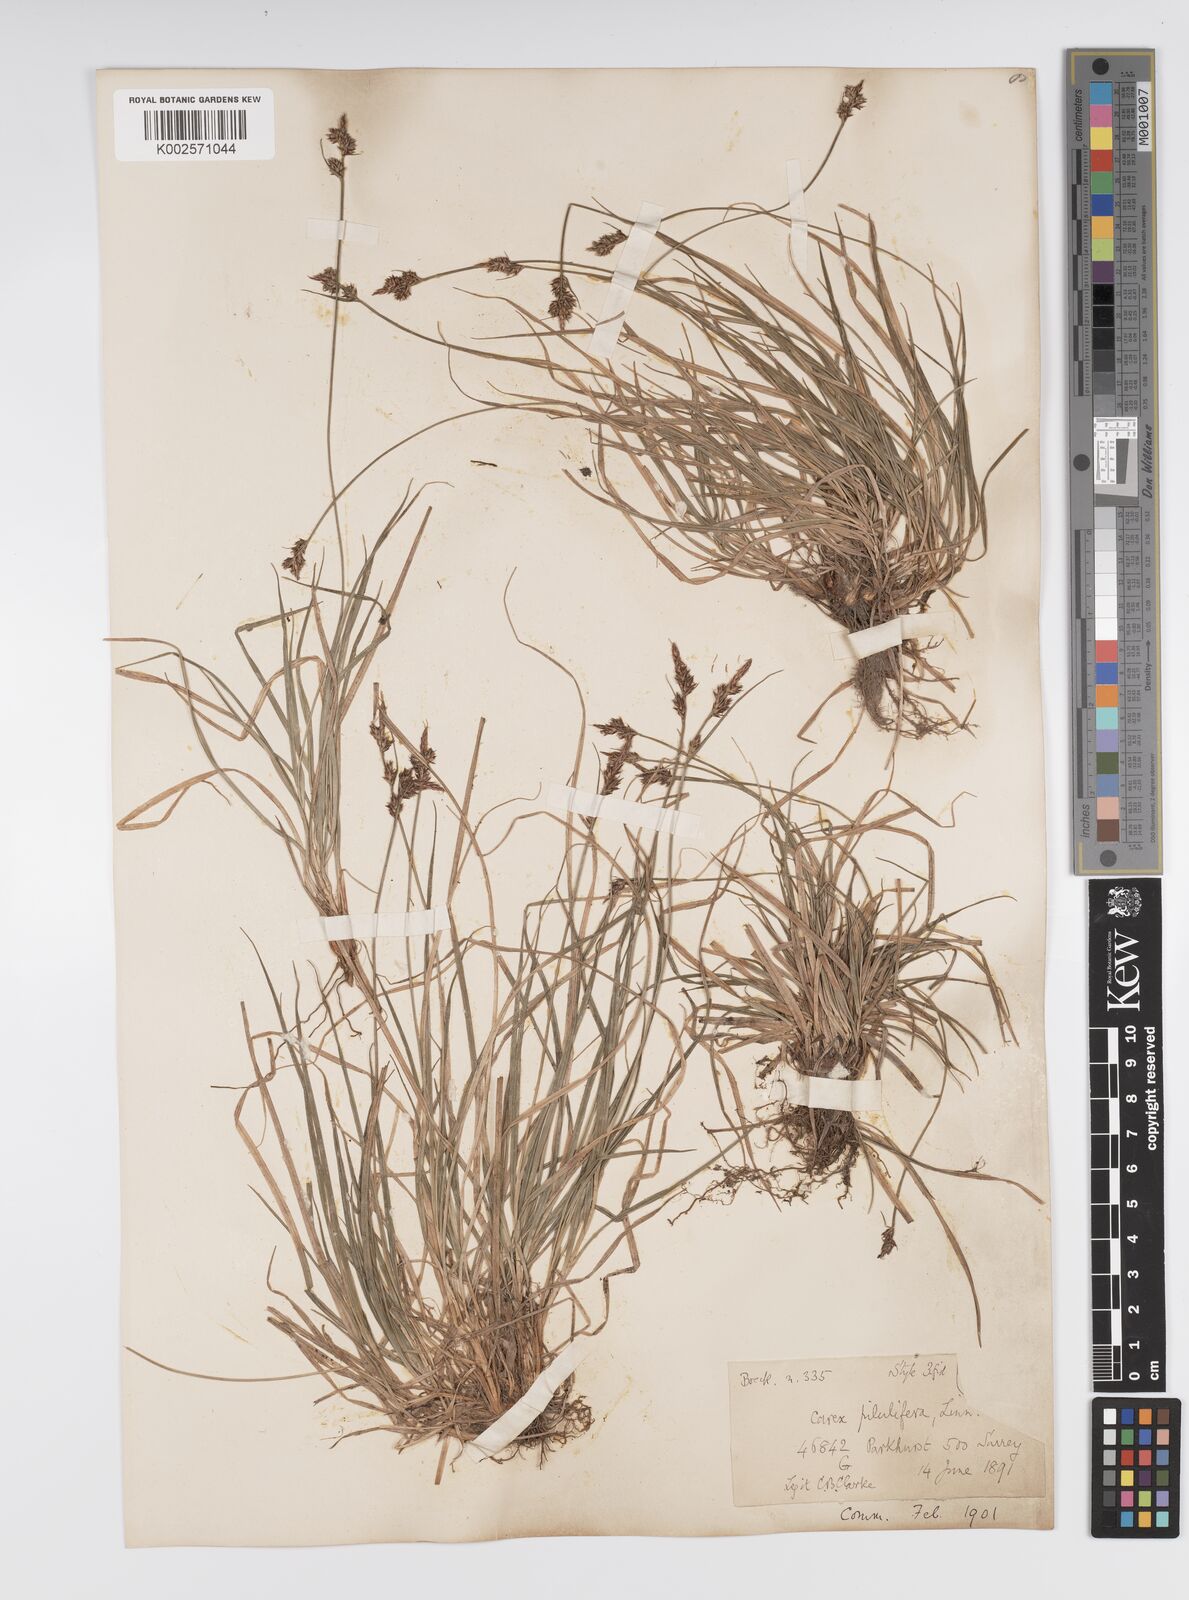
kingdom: Plantae
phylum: Tracheophyta
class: Liliopsida
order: Poales
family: Cyperaceae
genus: Carex
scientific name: Carex pilulifera
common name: Pill sedge
